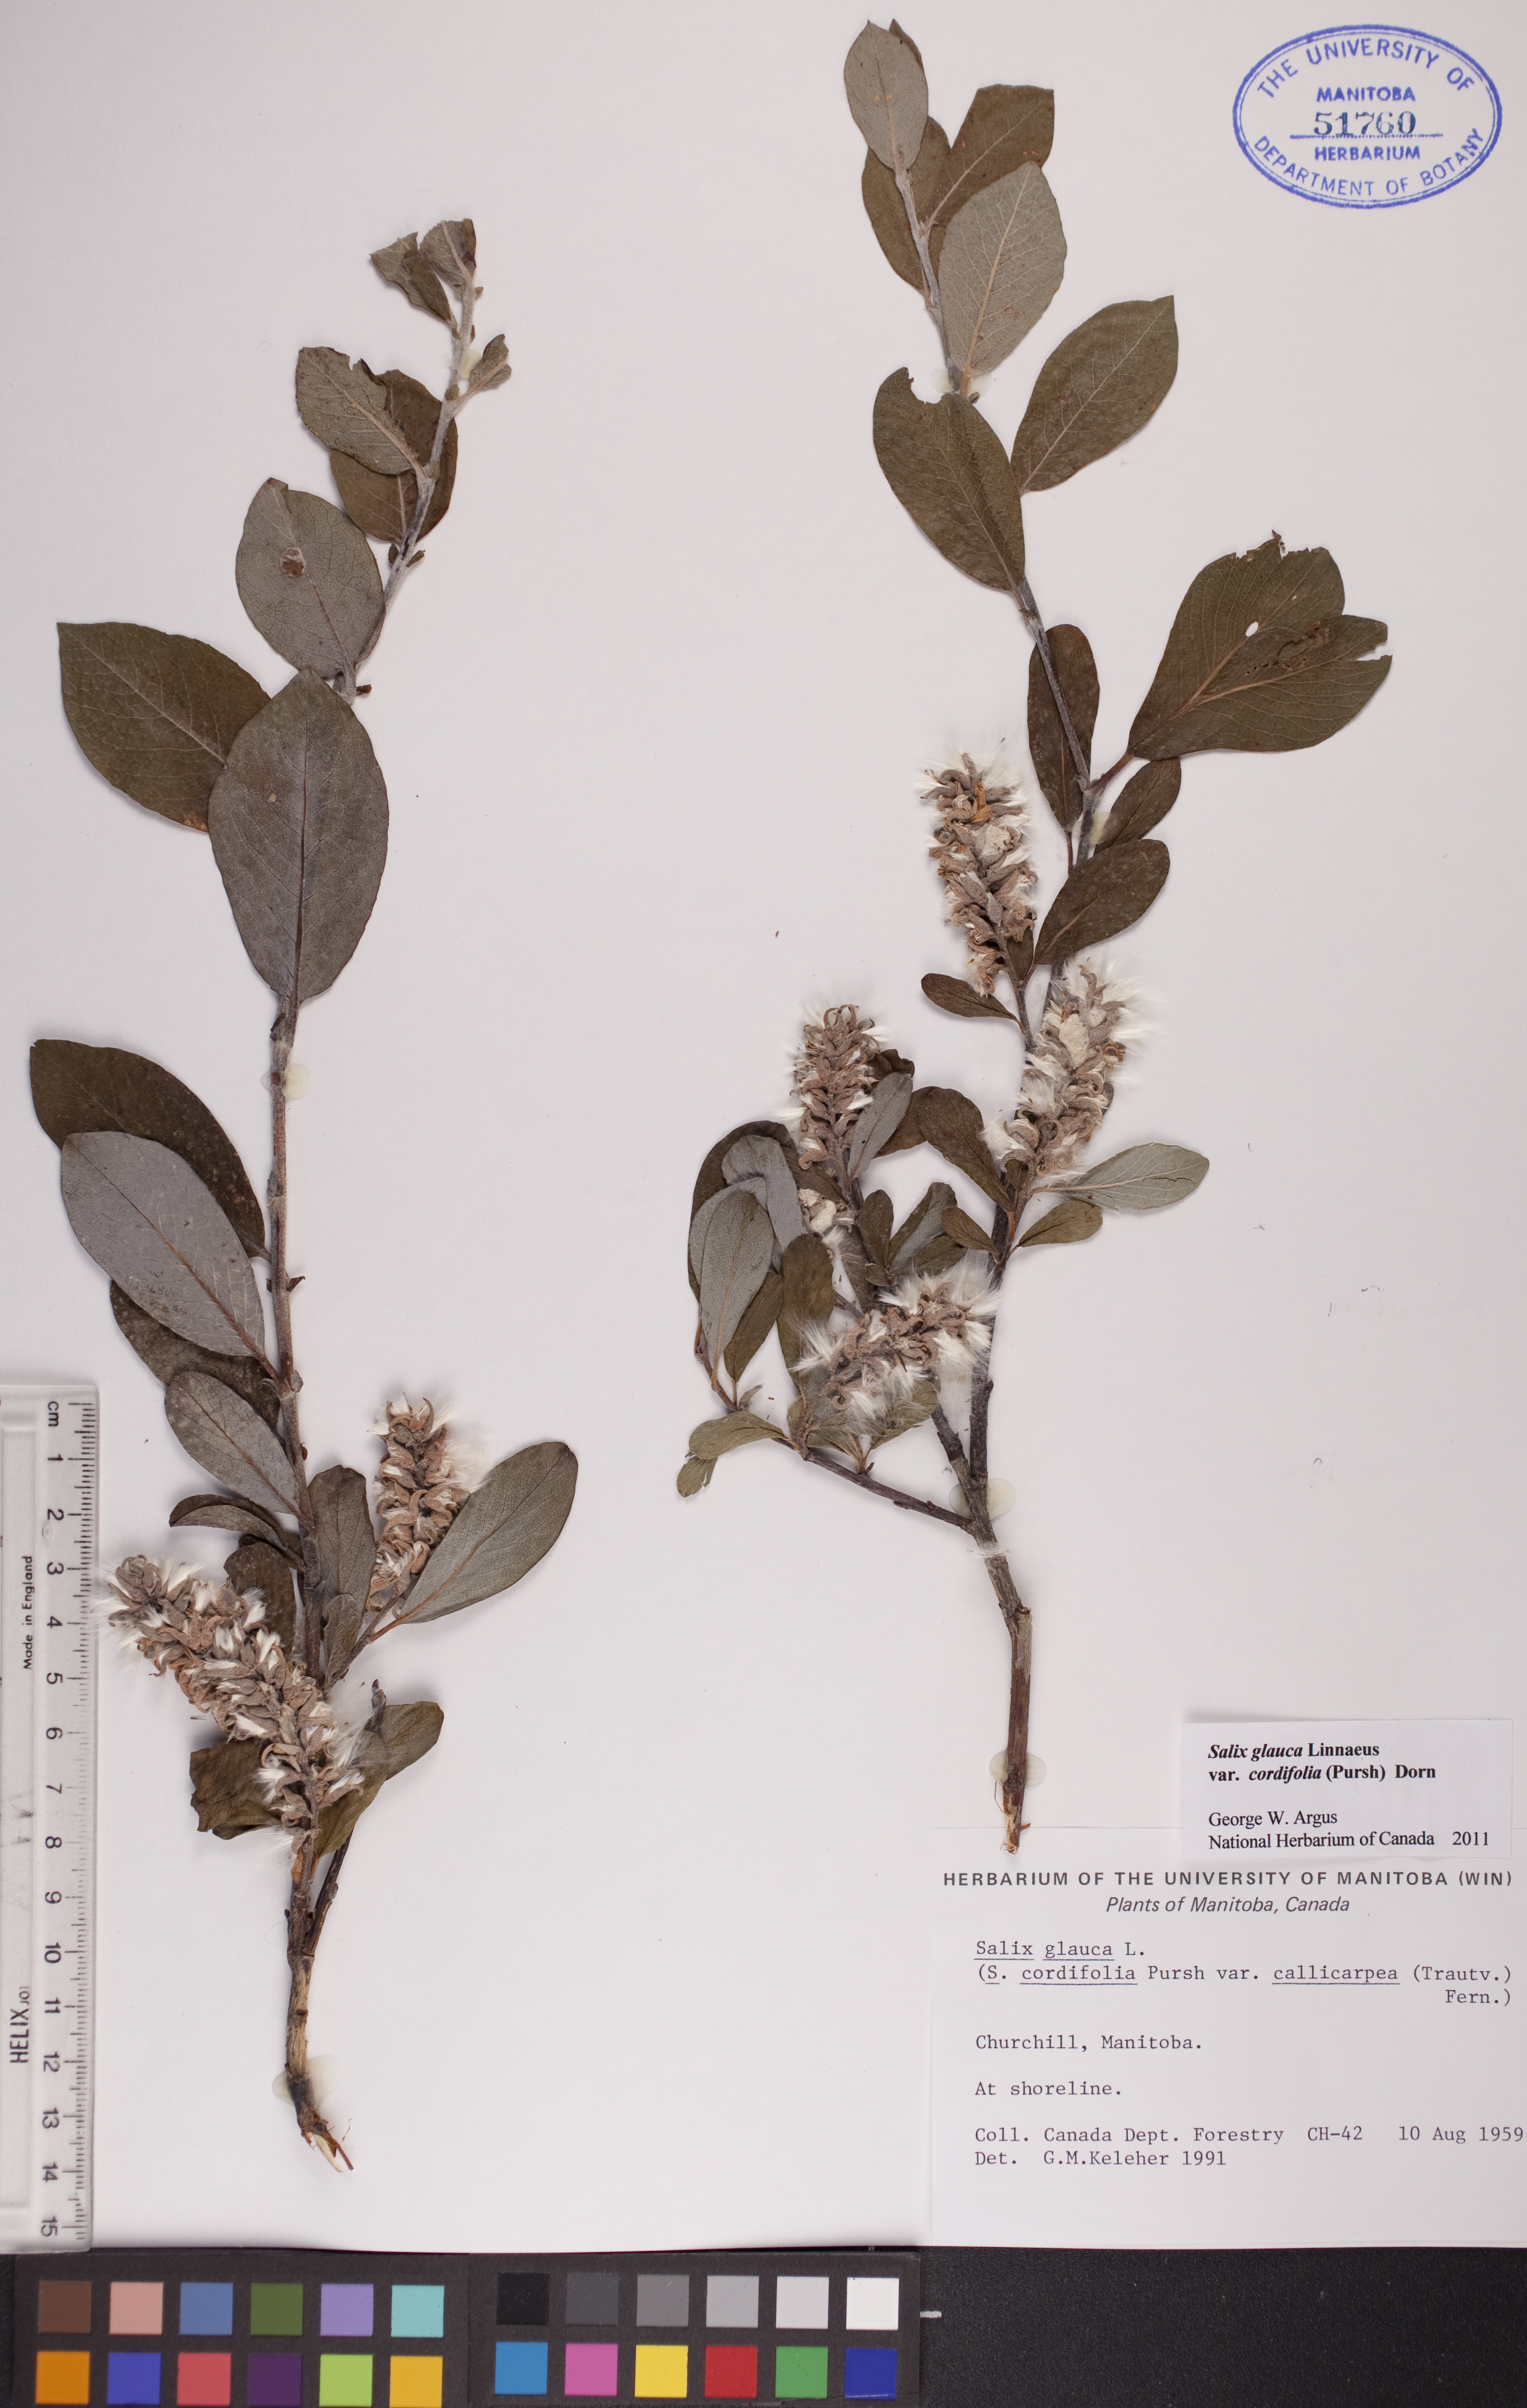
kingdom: Plantae
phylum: Tracheophyta
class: Magnoliopsida
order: Malpighiales
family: Salicaceae
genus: Salix
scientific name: Salix glauca
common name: Glaucous willow
